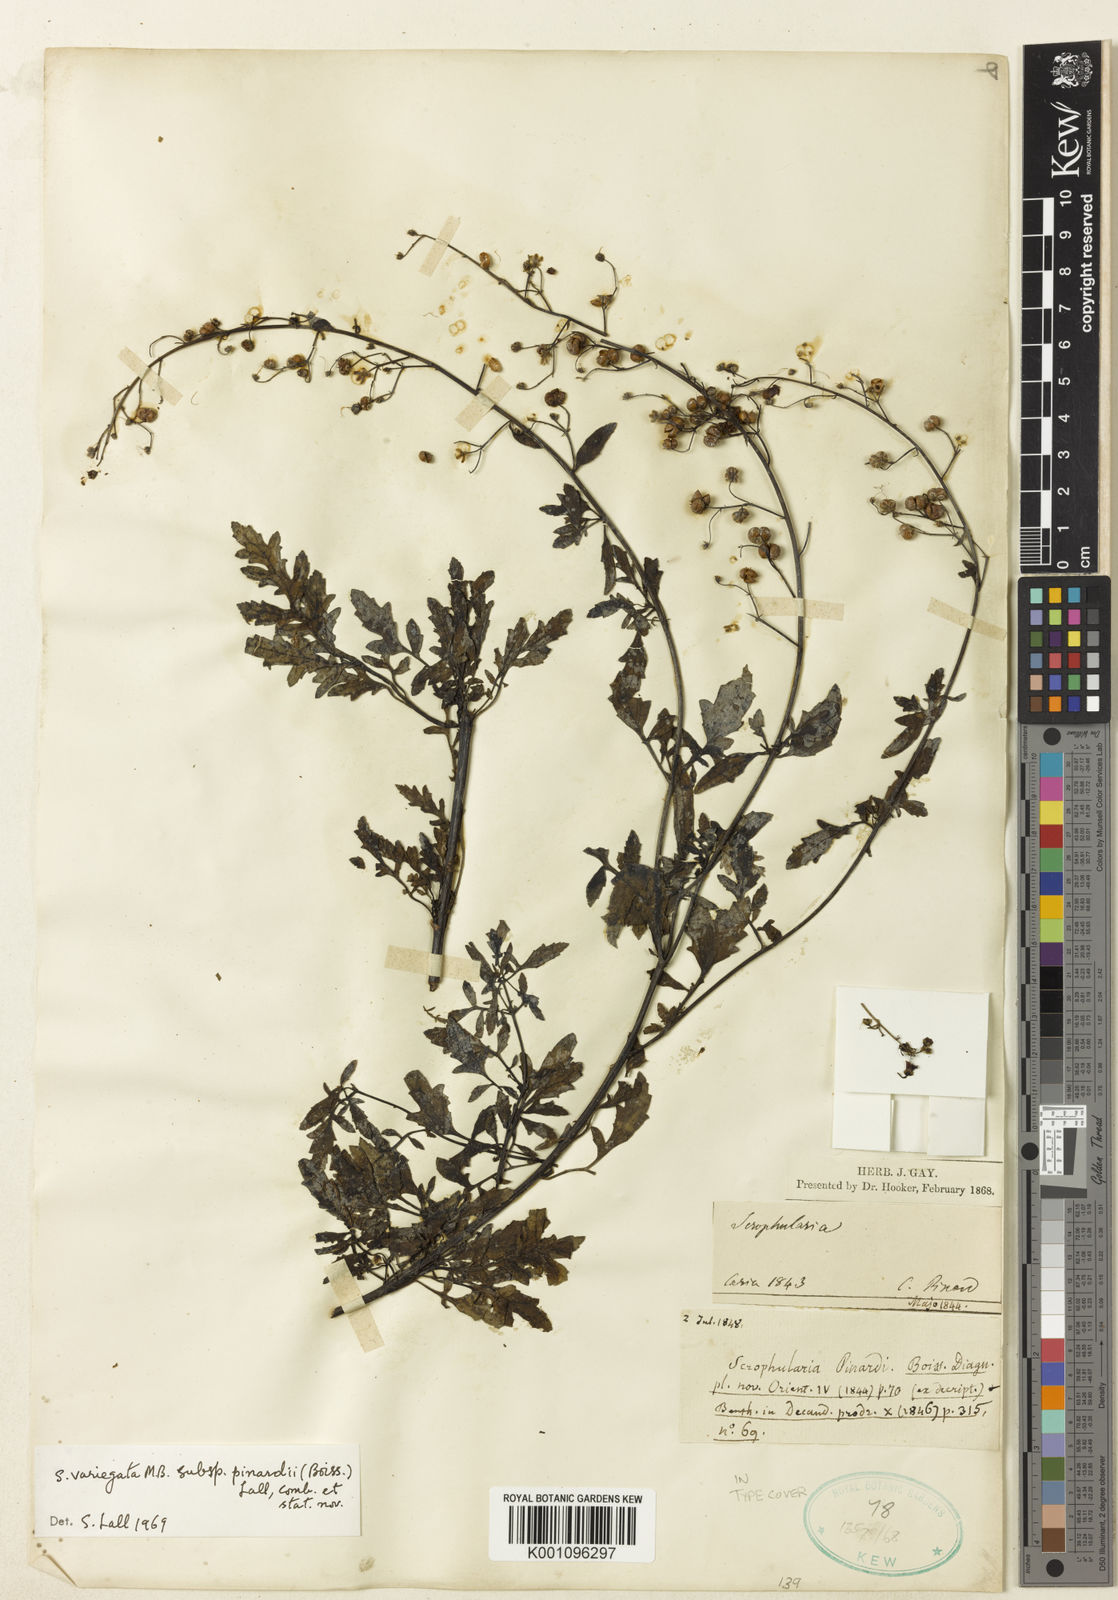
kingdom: Plantae
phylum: Tracheophyta
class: Magnoliopsida
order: Lamiales
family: Scrophulariaceae
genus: Scrophularia
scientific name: Scrophularia pinardii
